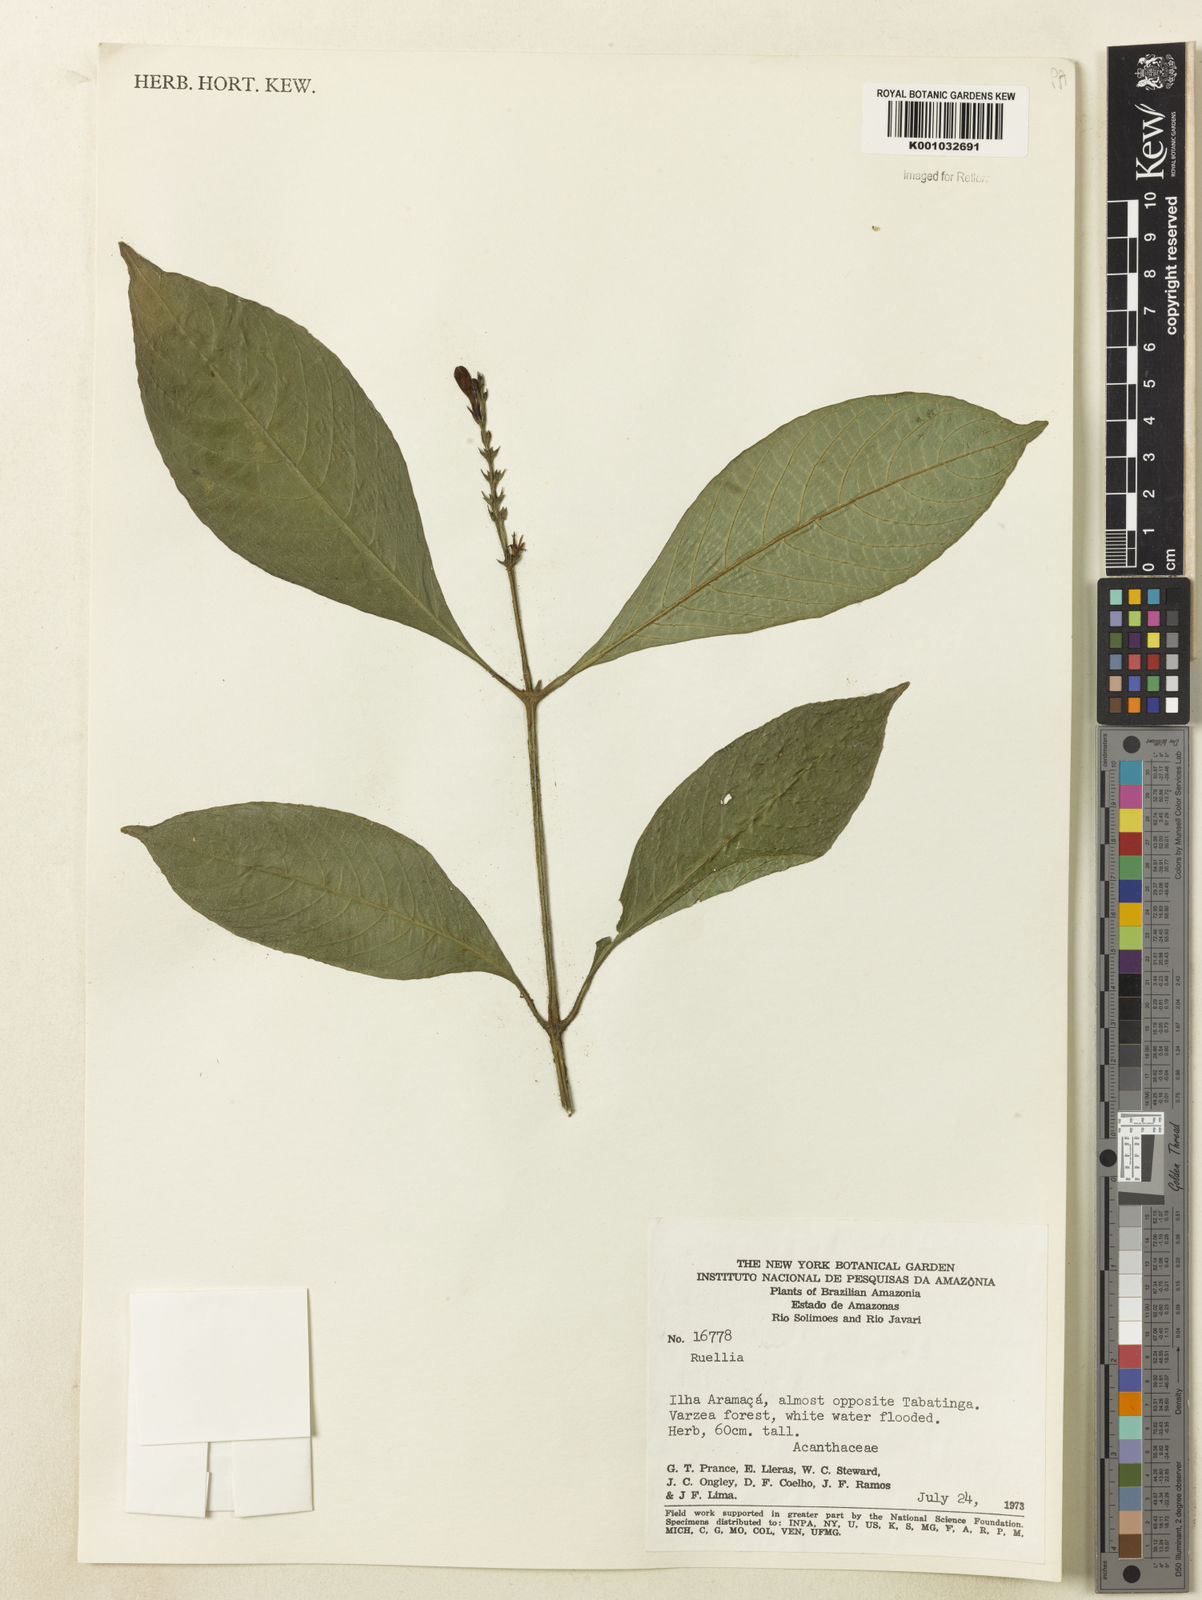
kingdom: Plantae
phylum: Tracheophyta
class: Magnoliopsida
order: Lamiales
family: Acanthaceae
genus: Ruellia
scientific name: Ruellia
